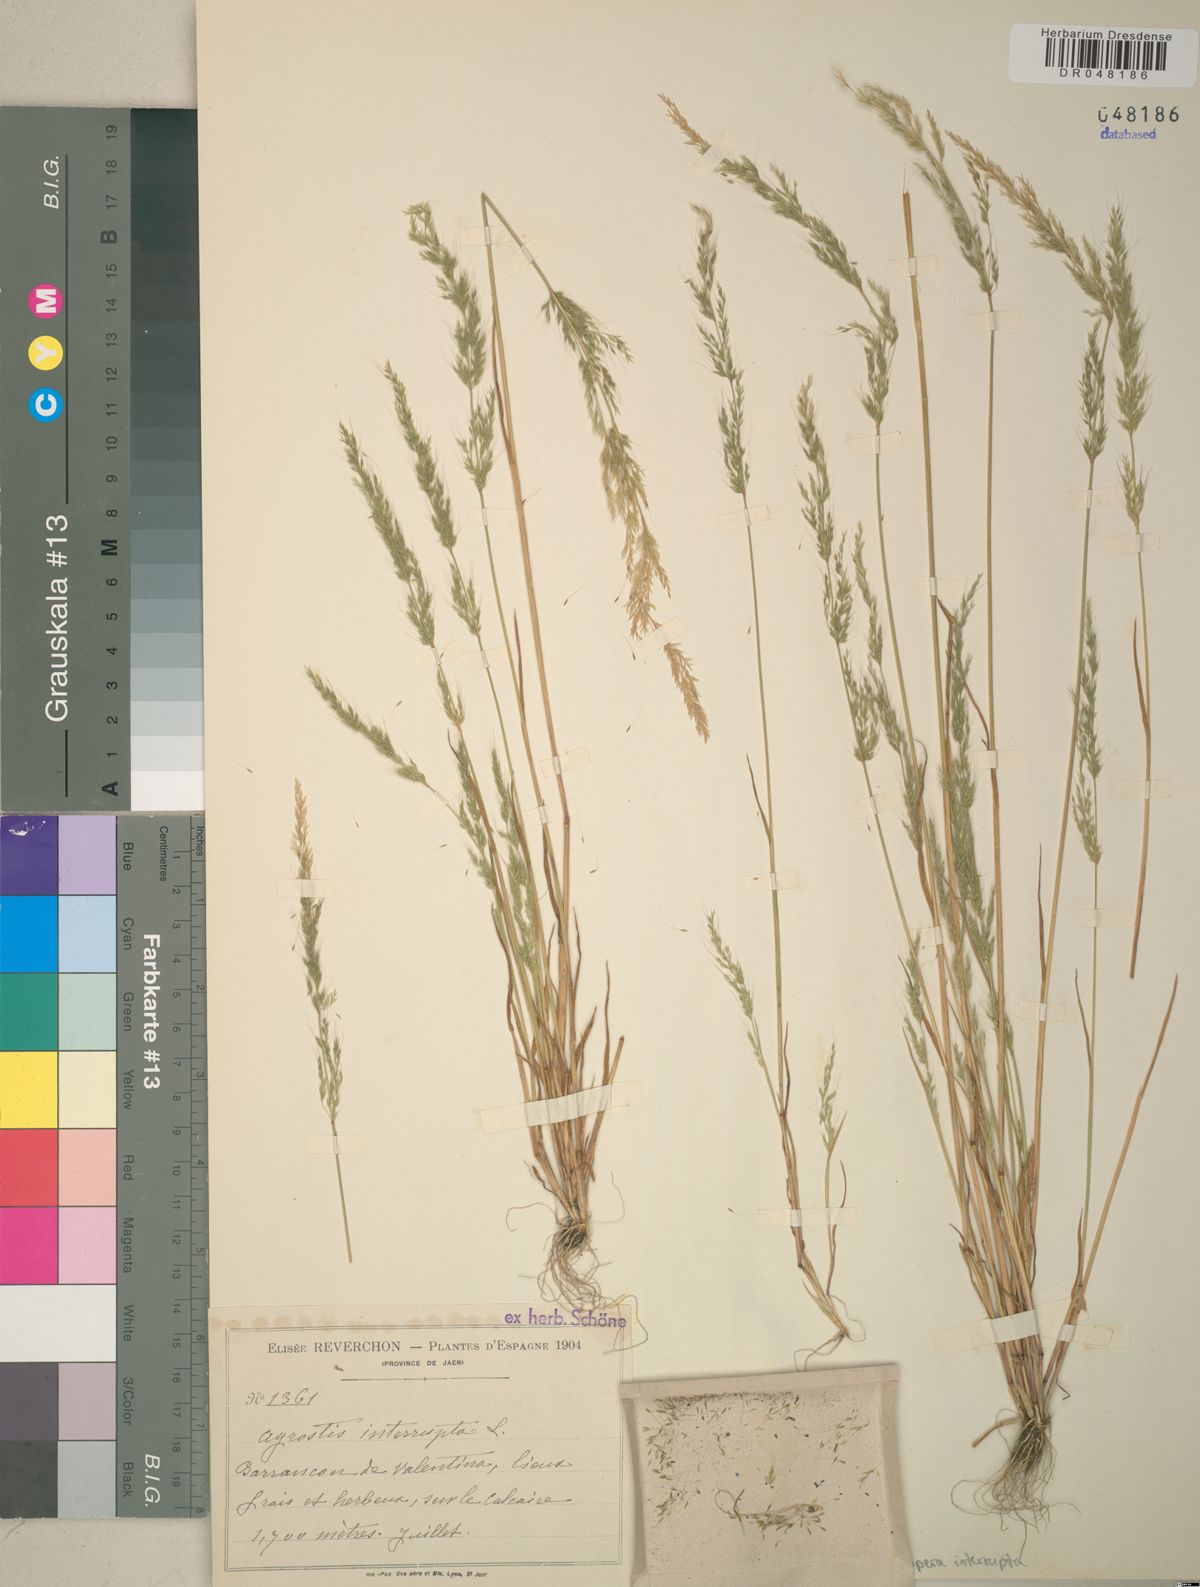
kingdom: Plantae
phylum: Tracheophyta
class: Liliopsida
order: Poales
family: Poaceae
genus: Apera
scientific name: Apera interrupta
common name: Dense silky-bent
